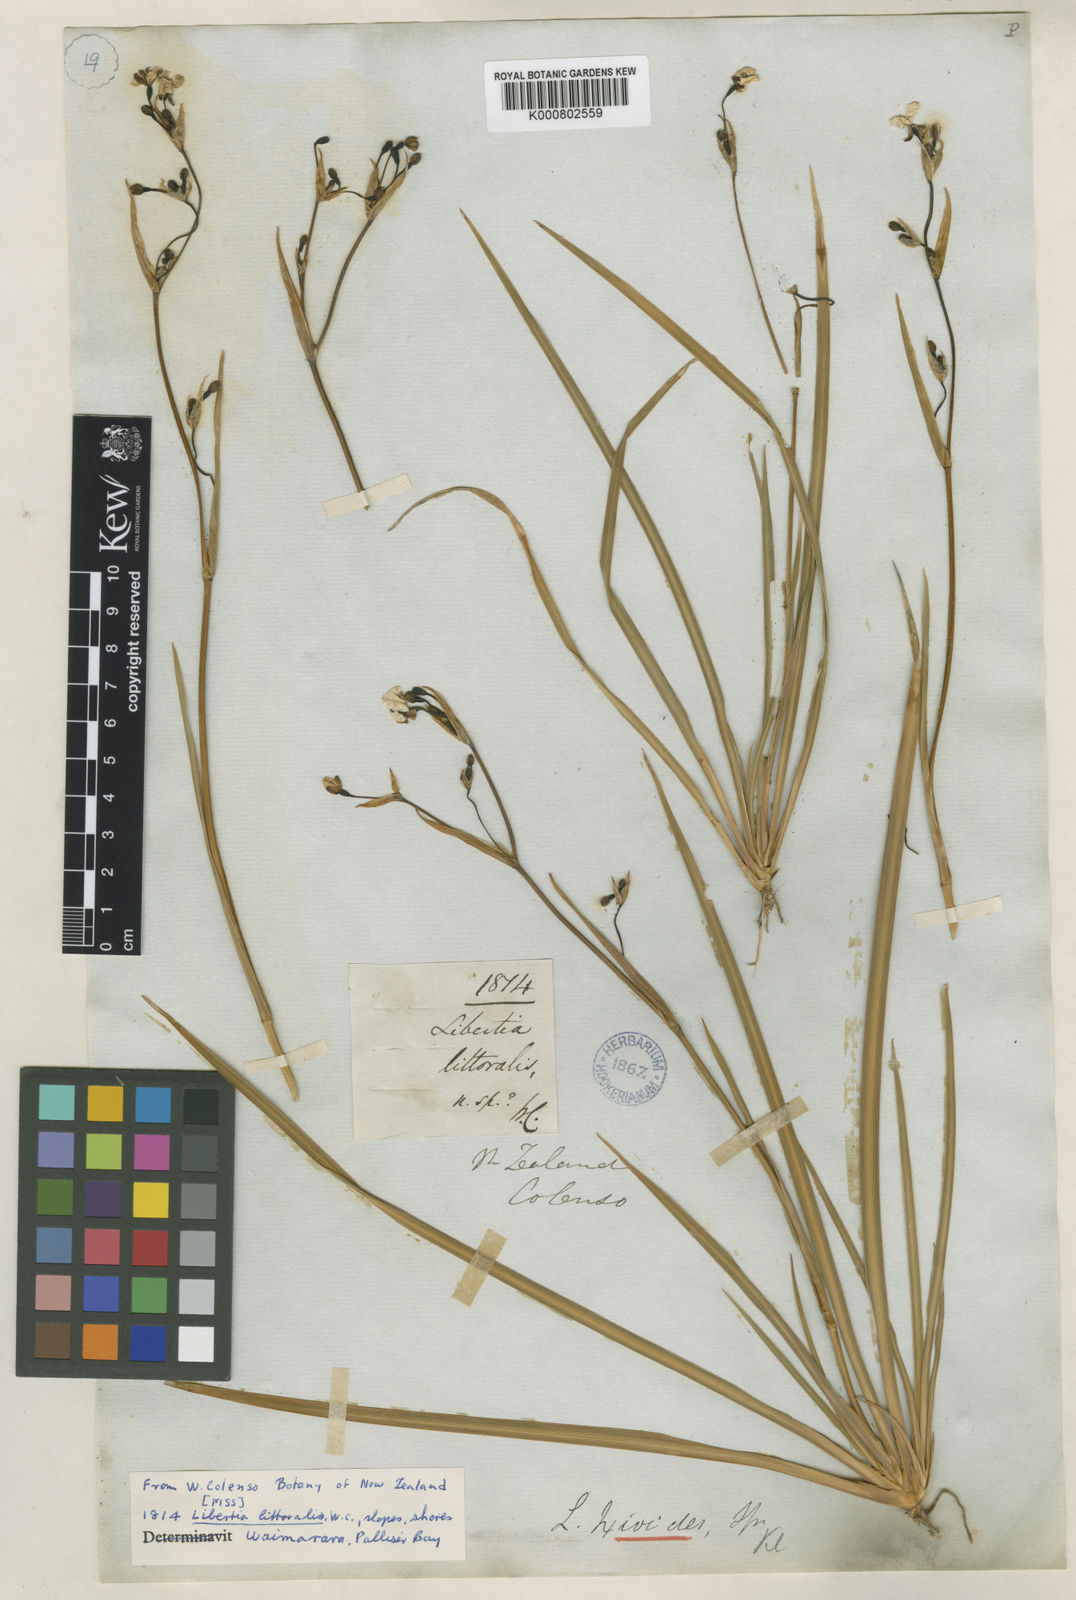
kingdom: Plantae
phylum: Tracheophyta
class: Liliopsida
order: Asparagales
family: Iridaceae
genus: Libertia
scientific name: Libertia peregrinans
